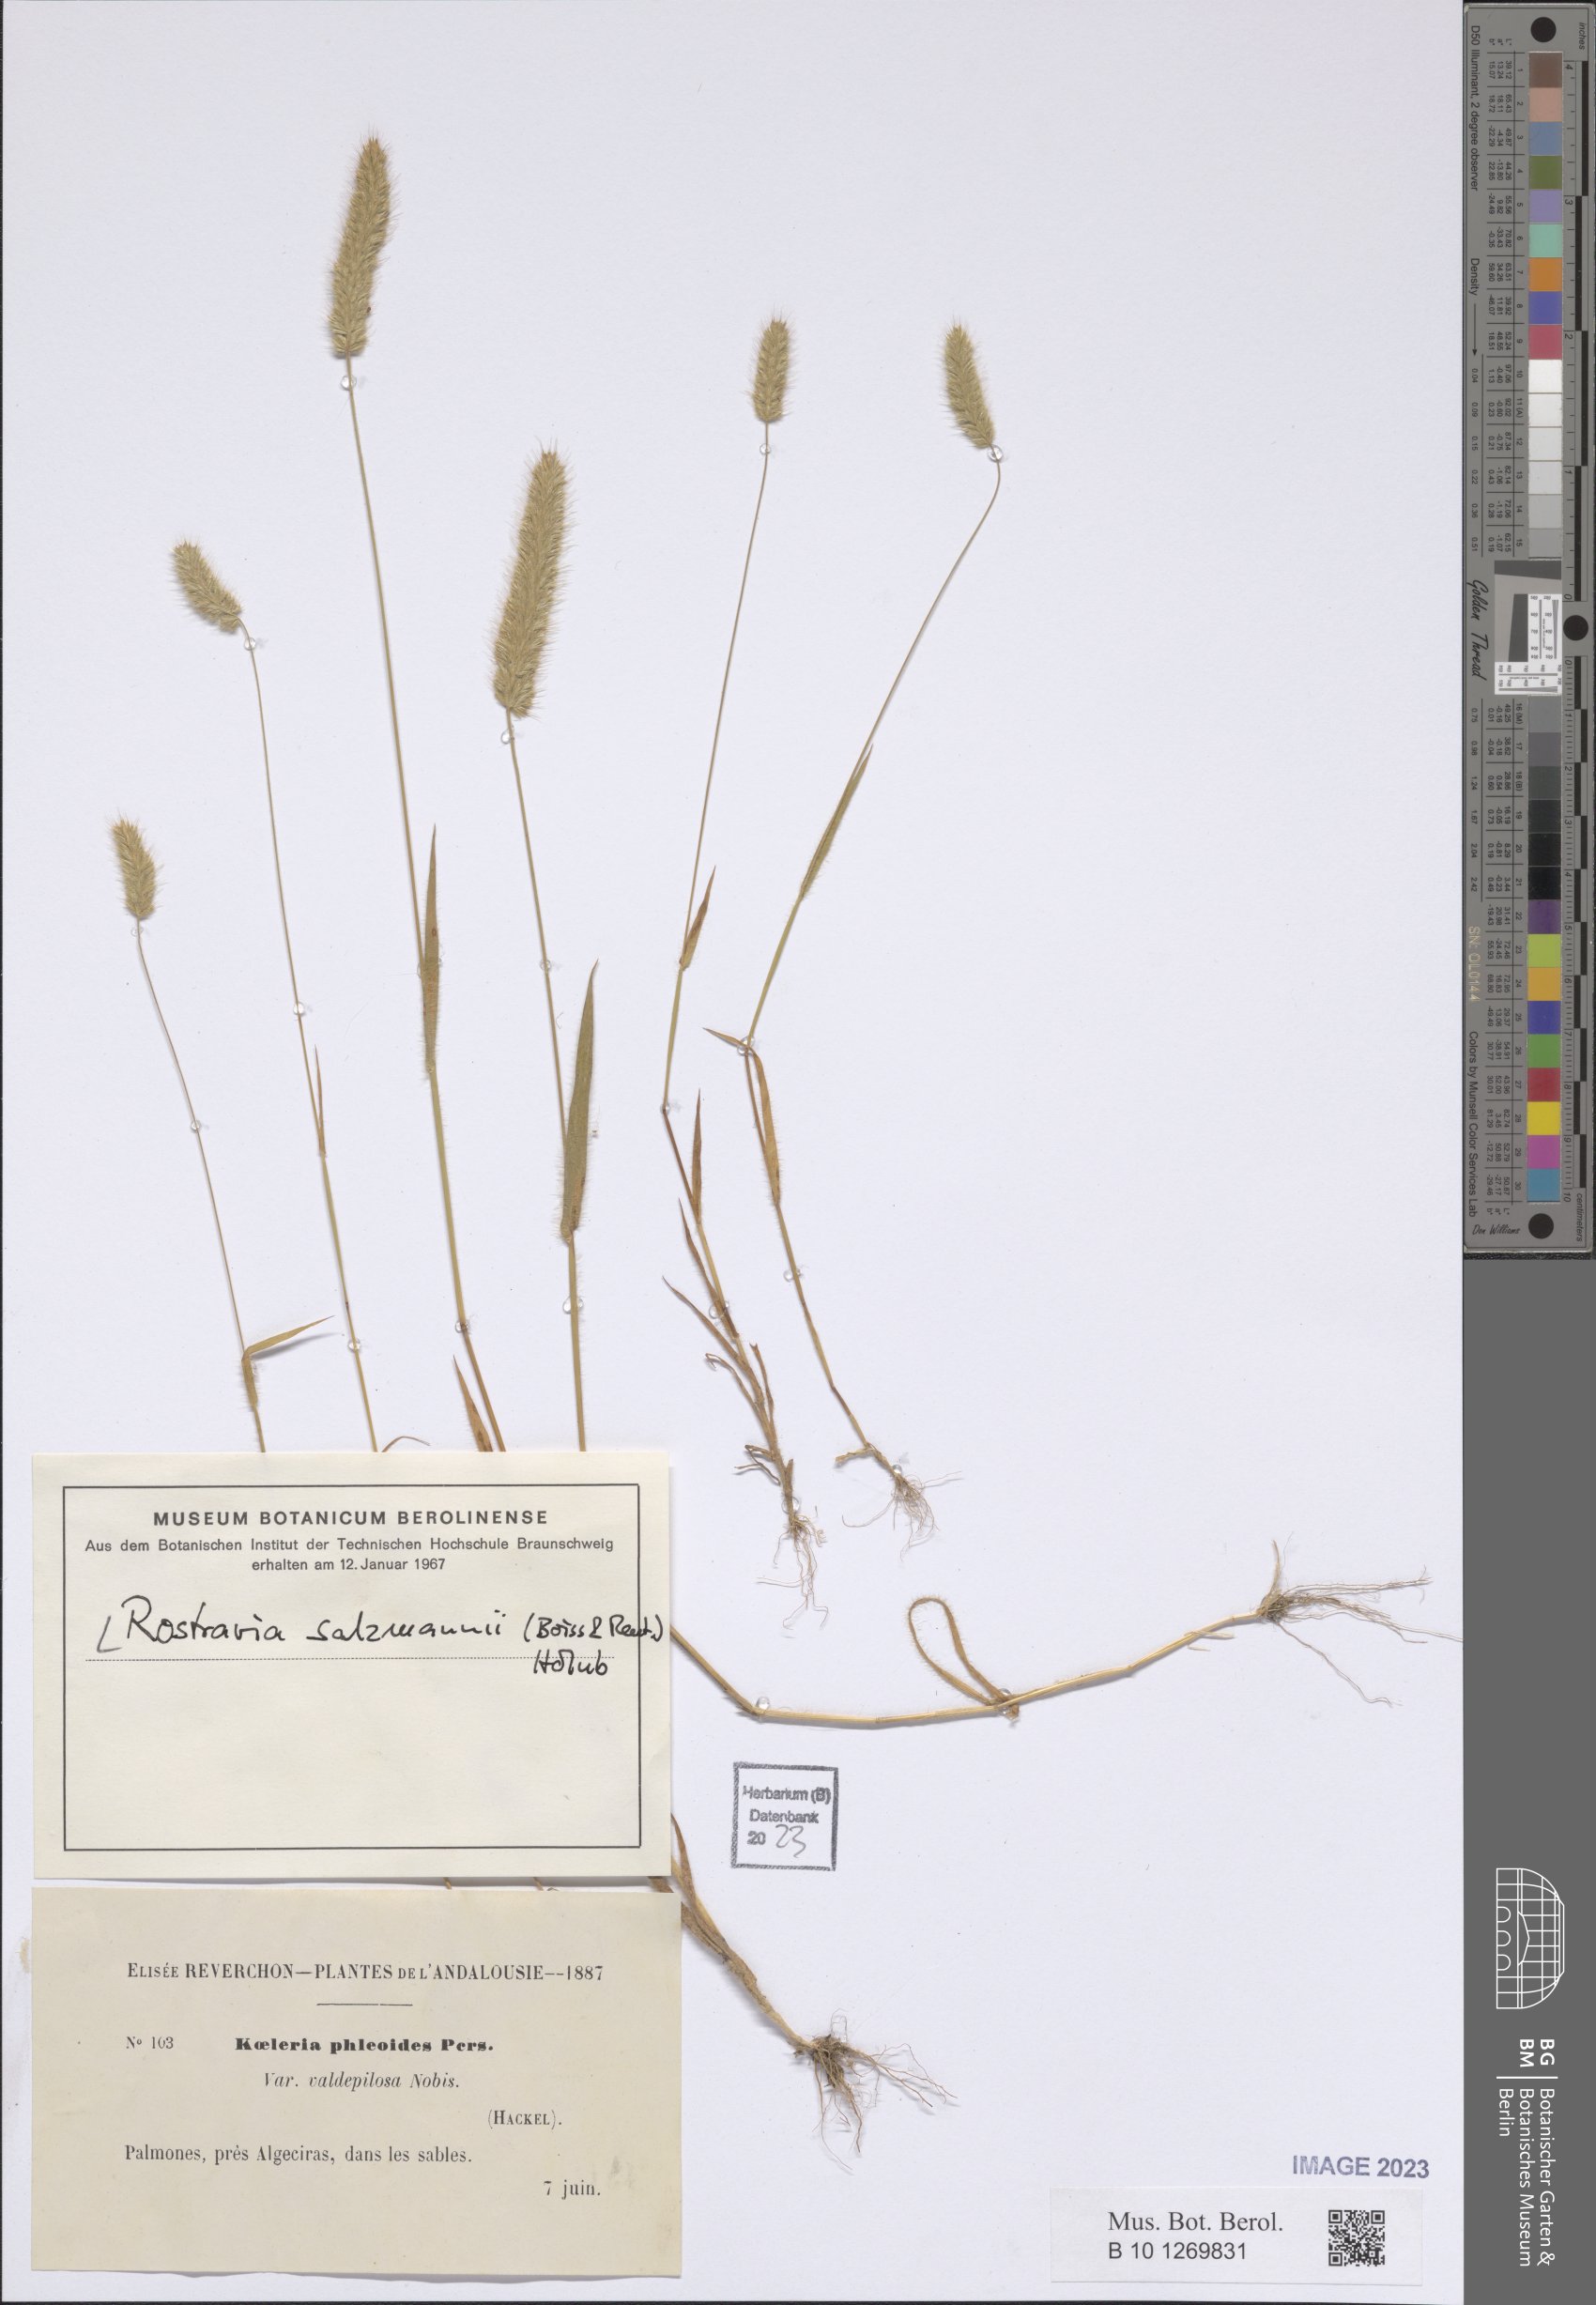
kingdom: Plantae
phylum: Tracheophyta
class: Liliopsida
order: Poales
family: Poaceae
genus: Rostraria
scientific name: Rostraria salzmannii
